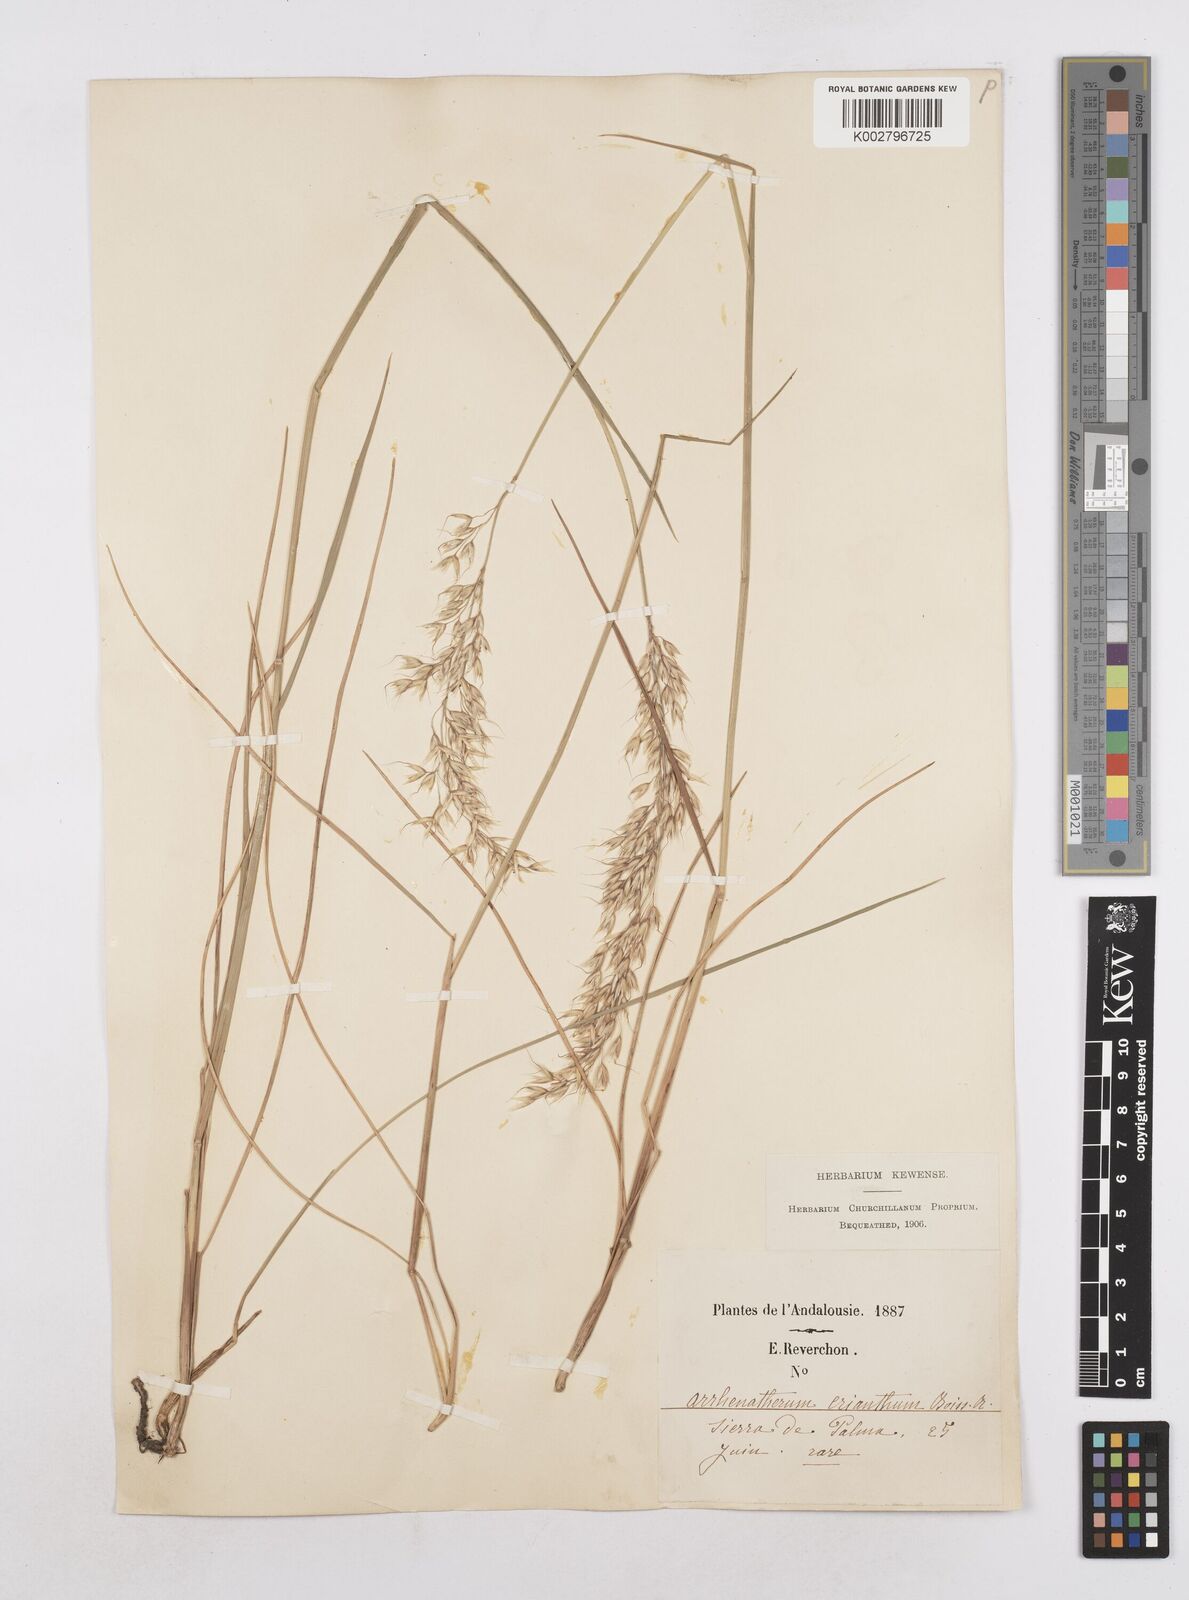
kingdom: Plantae
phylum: Tracheophyta
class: Liliopsida
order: Poales
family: Poaceae
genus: Arrhenatherum
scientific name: Arrhenatherum longifolium
